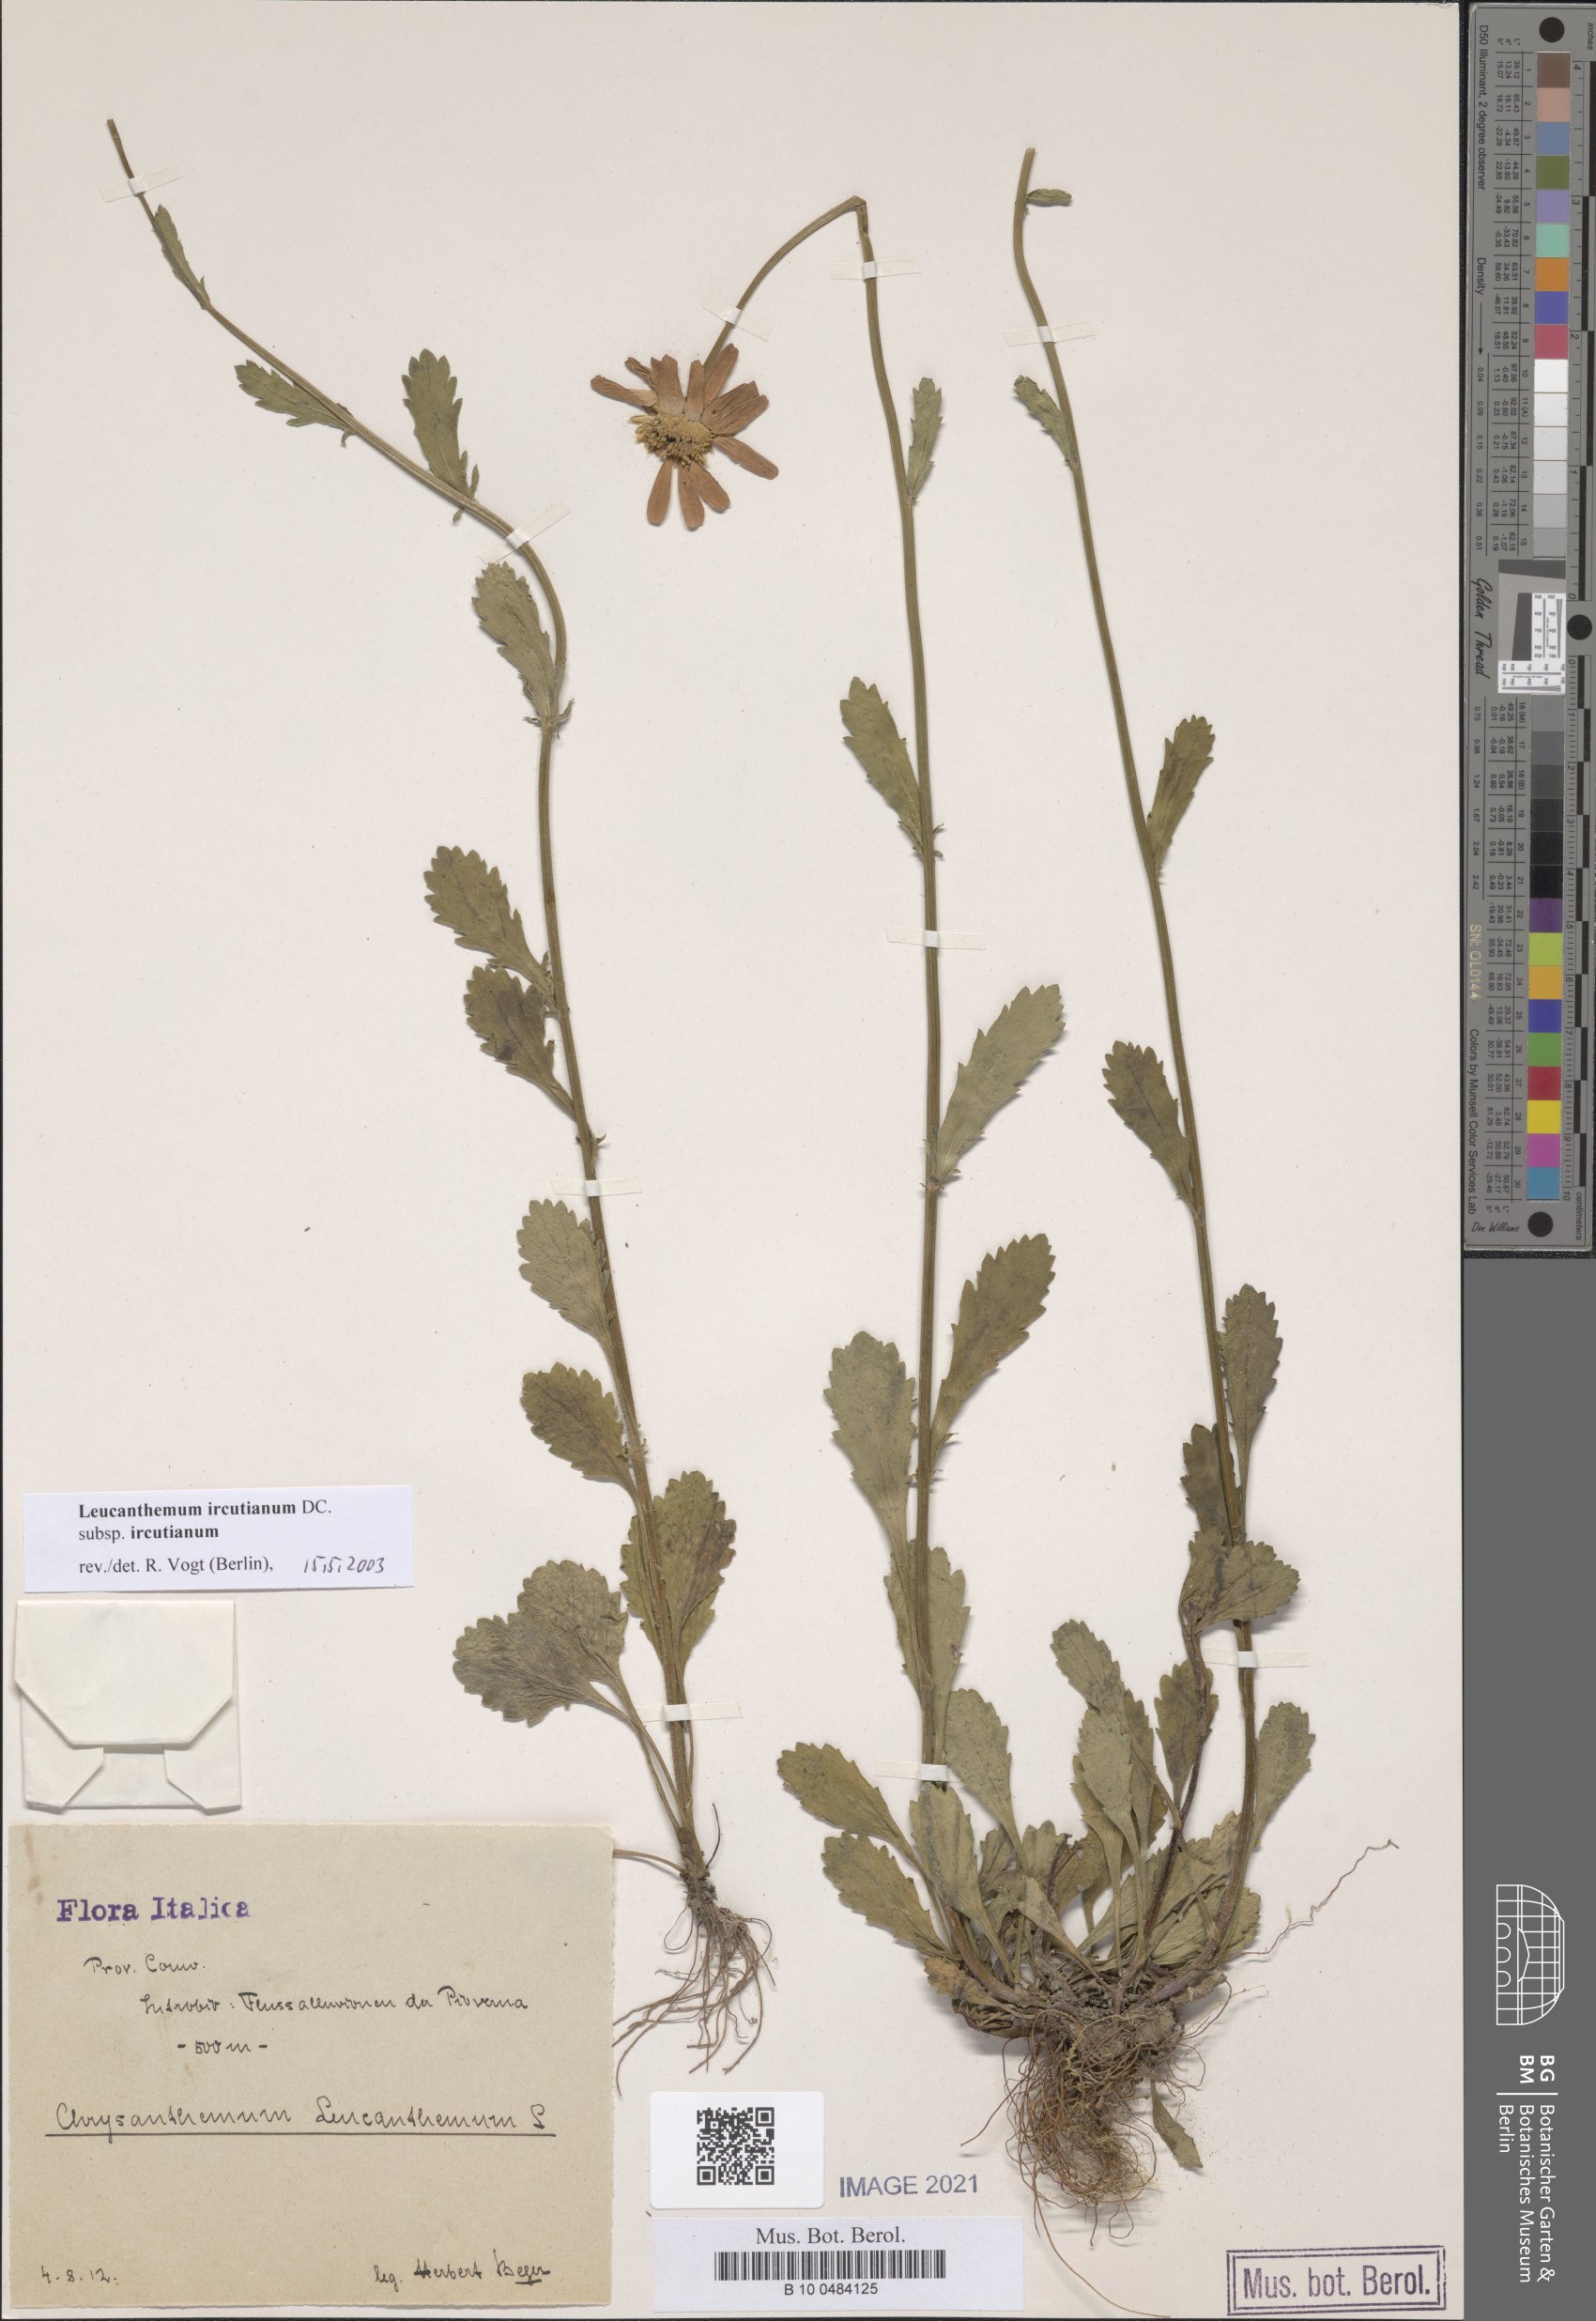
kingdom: Plantae
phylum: Tracheophyta
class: Magnoliopsida
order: Asterales
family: Asteraceae
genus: Leucanthemum
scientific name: Leucanthemum ircutianum
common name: Daisy
